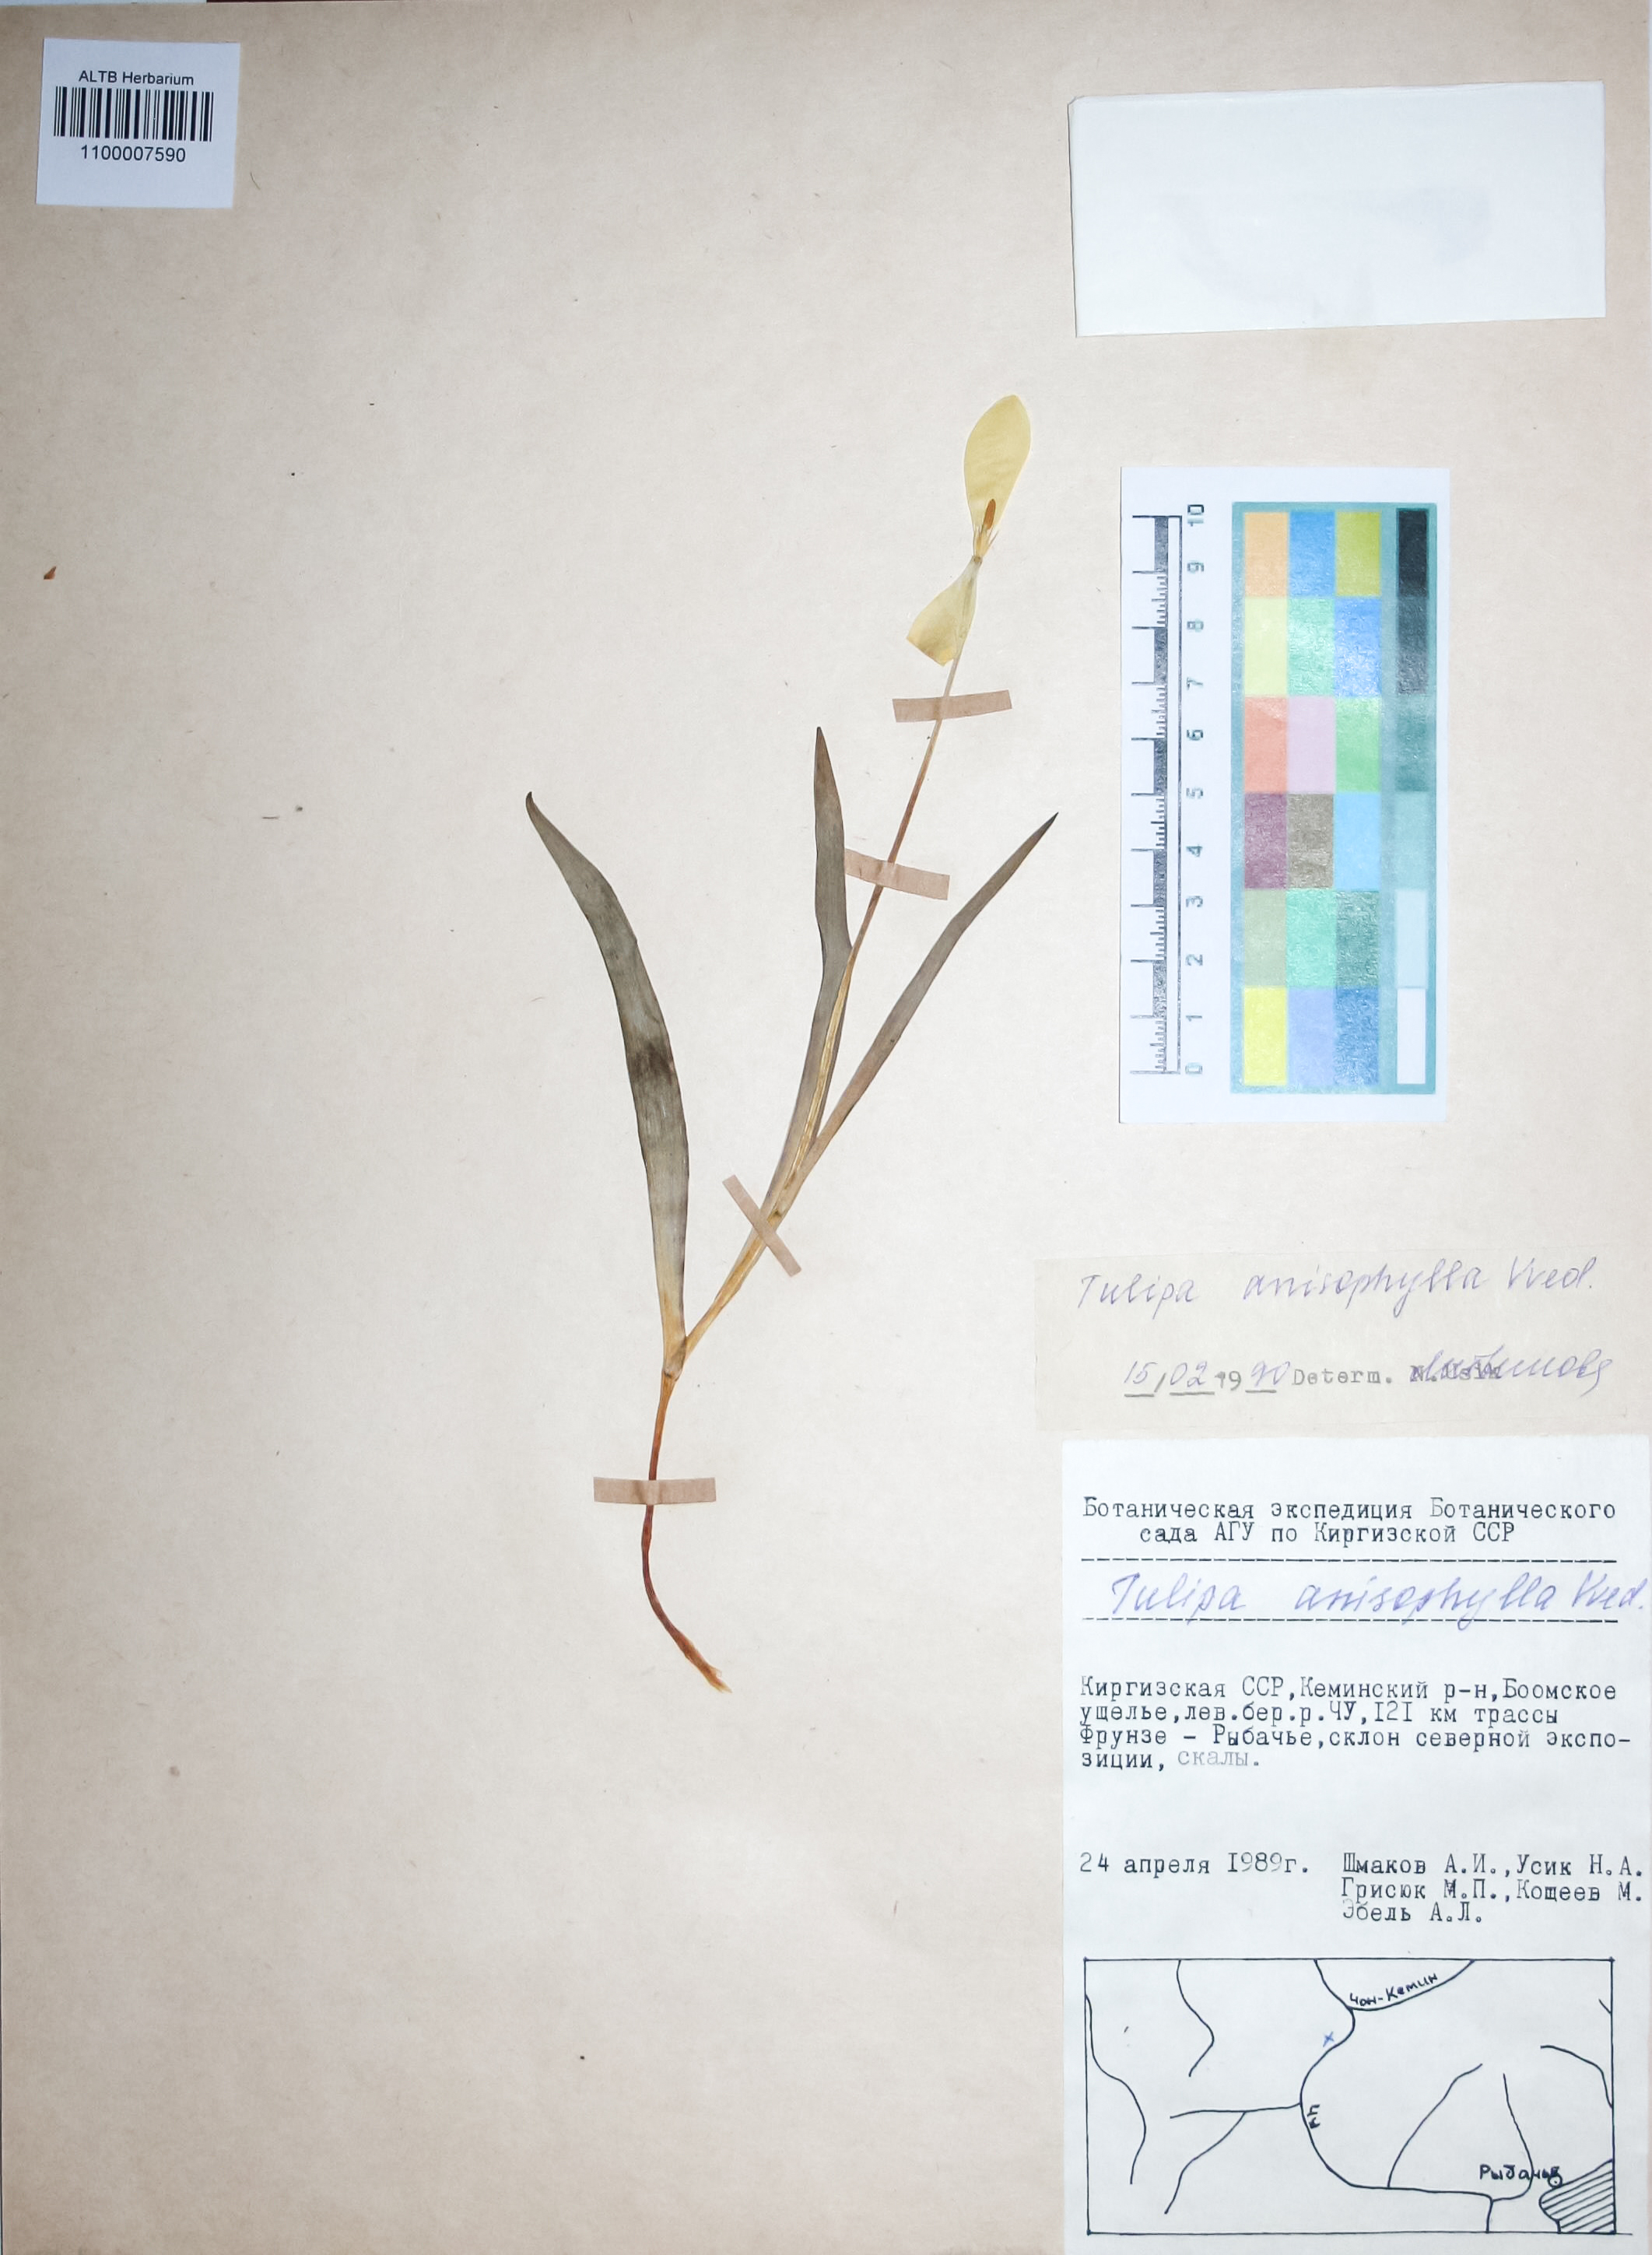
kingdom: Plantae
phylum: Tracheophyta
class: Liliopsida
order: Liliales
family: Liliaceae
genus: Tulipa
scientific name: Tulipa anisophylla
